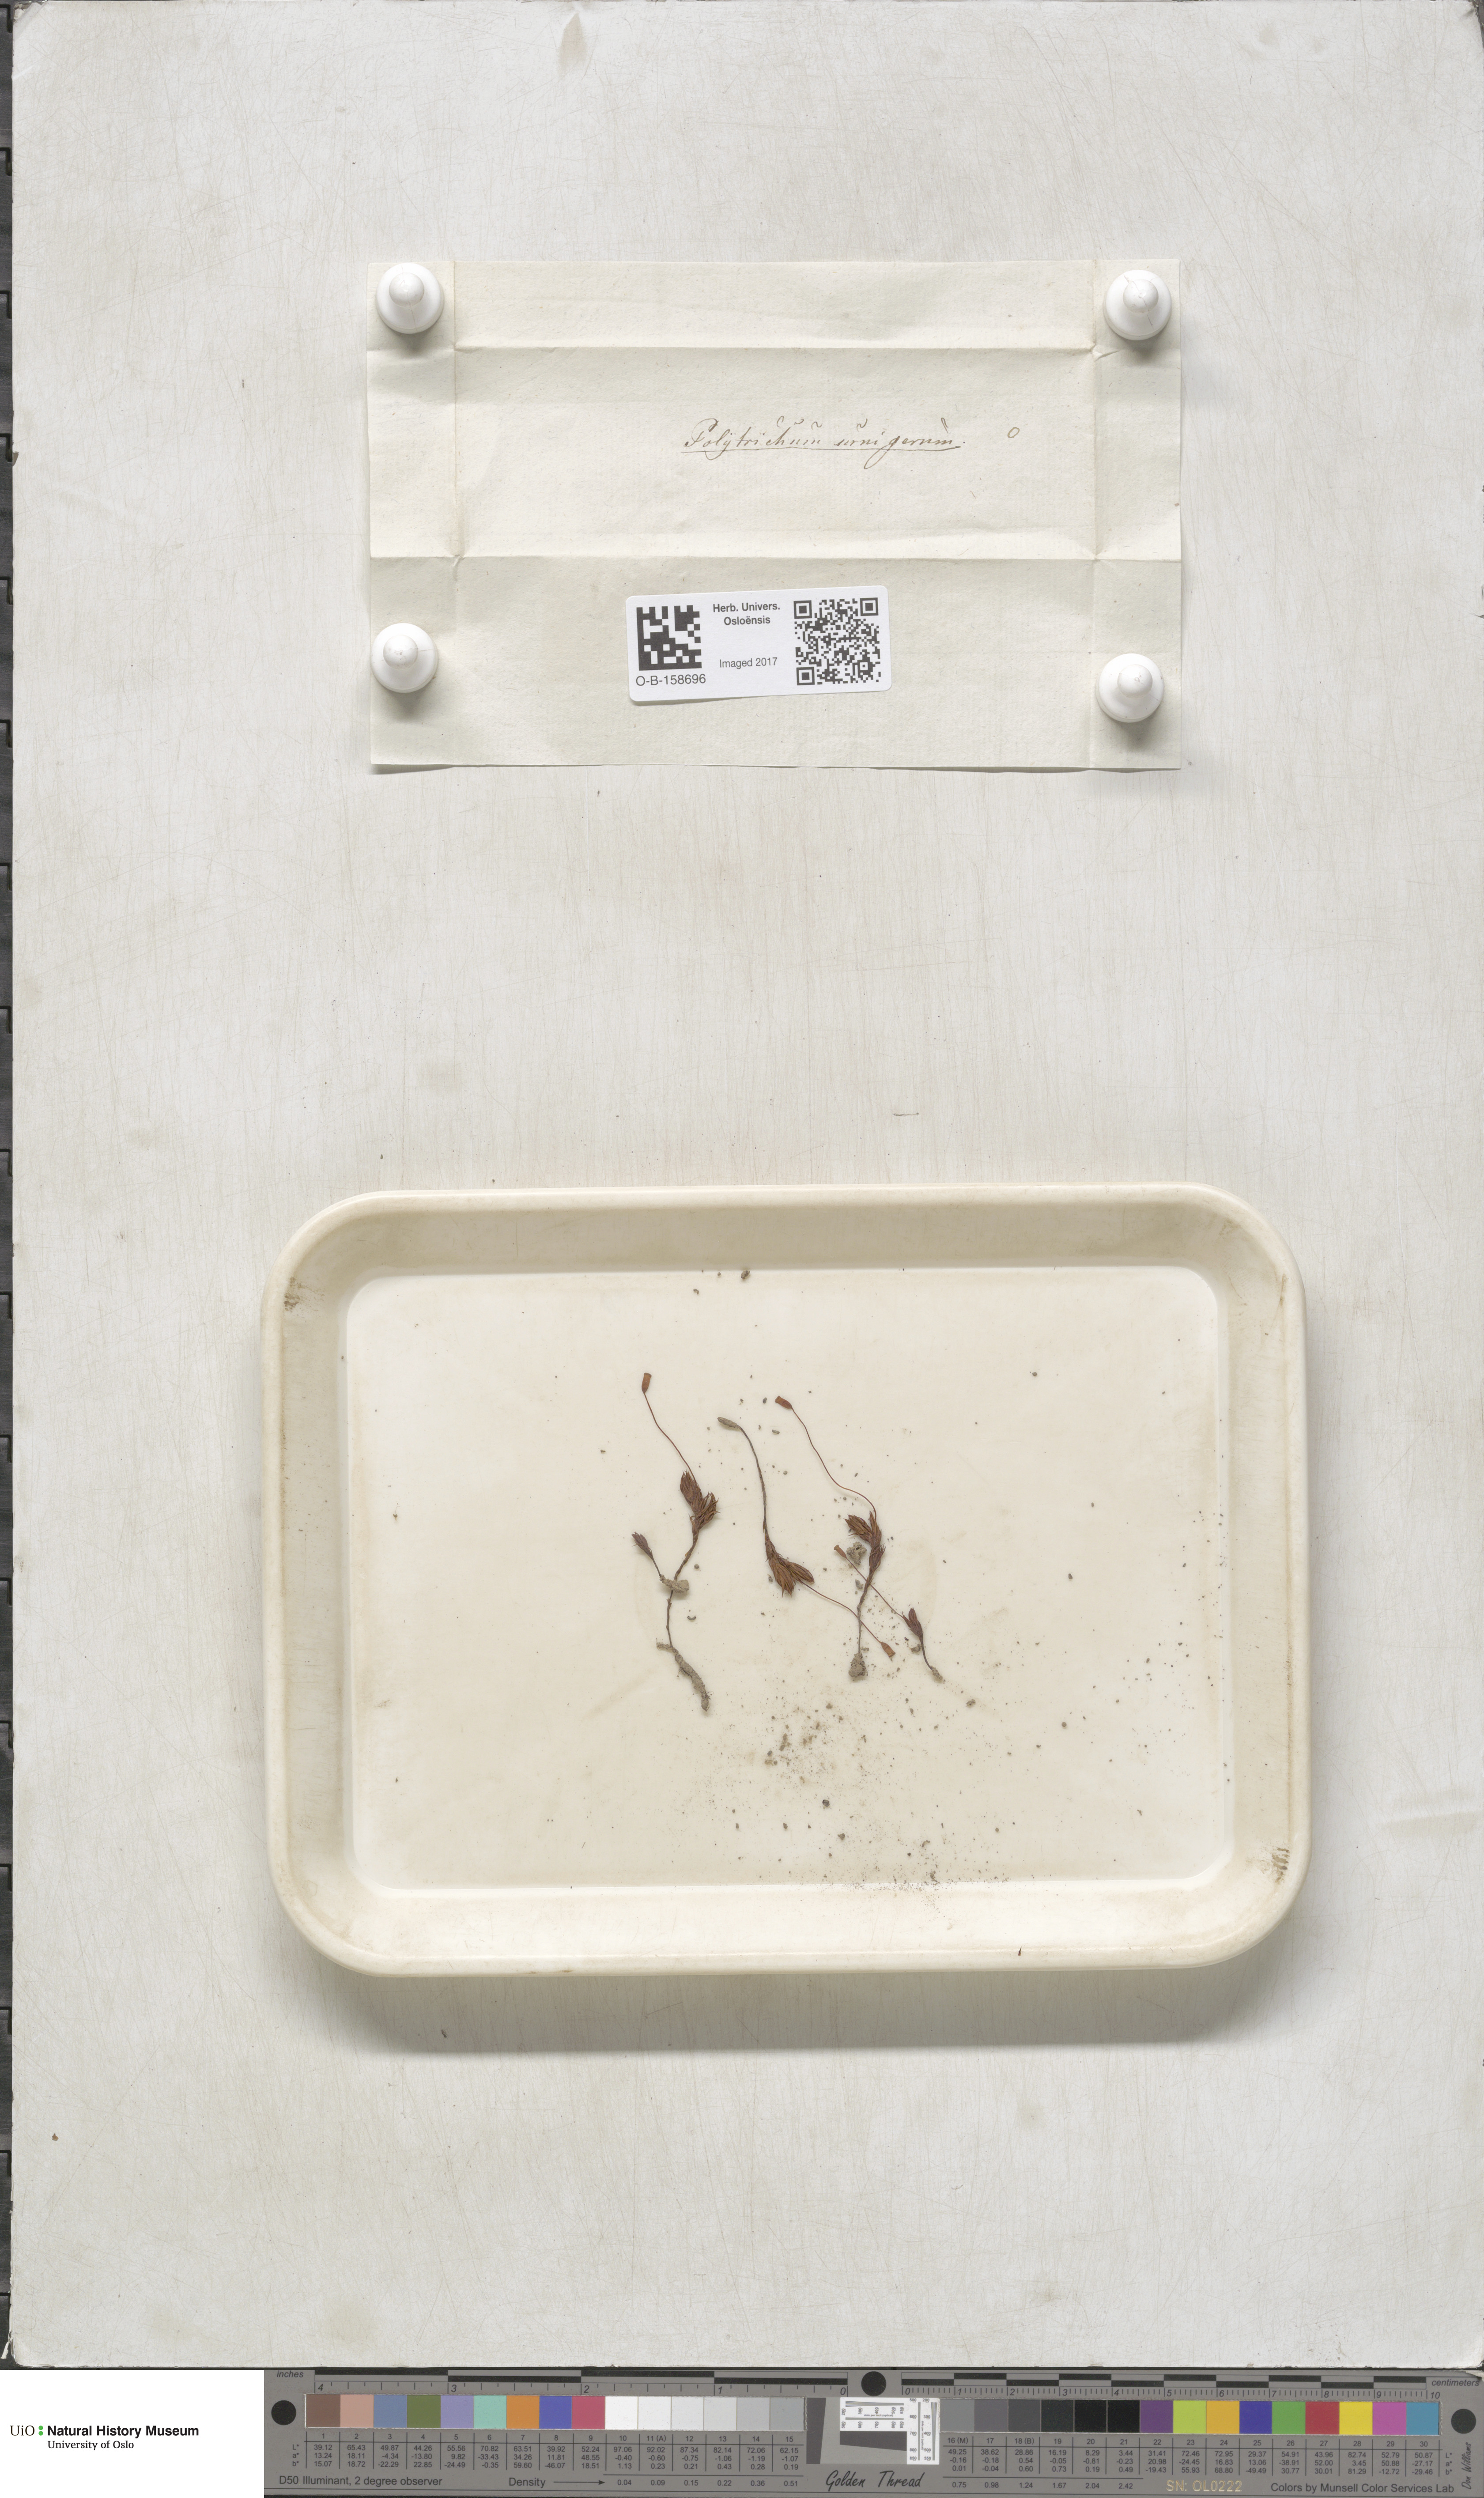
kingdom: Plantae
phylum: Bryophyta
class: Polytrichopsida
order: Polytrichales
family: Polytrichaceae
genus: Pogonatum
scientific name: Pogonatum urnigerum
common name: Urn hair moss
